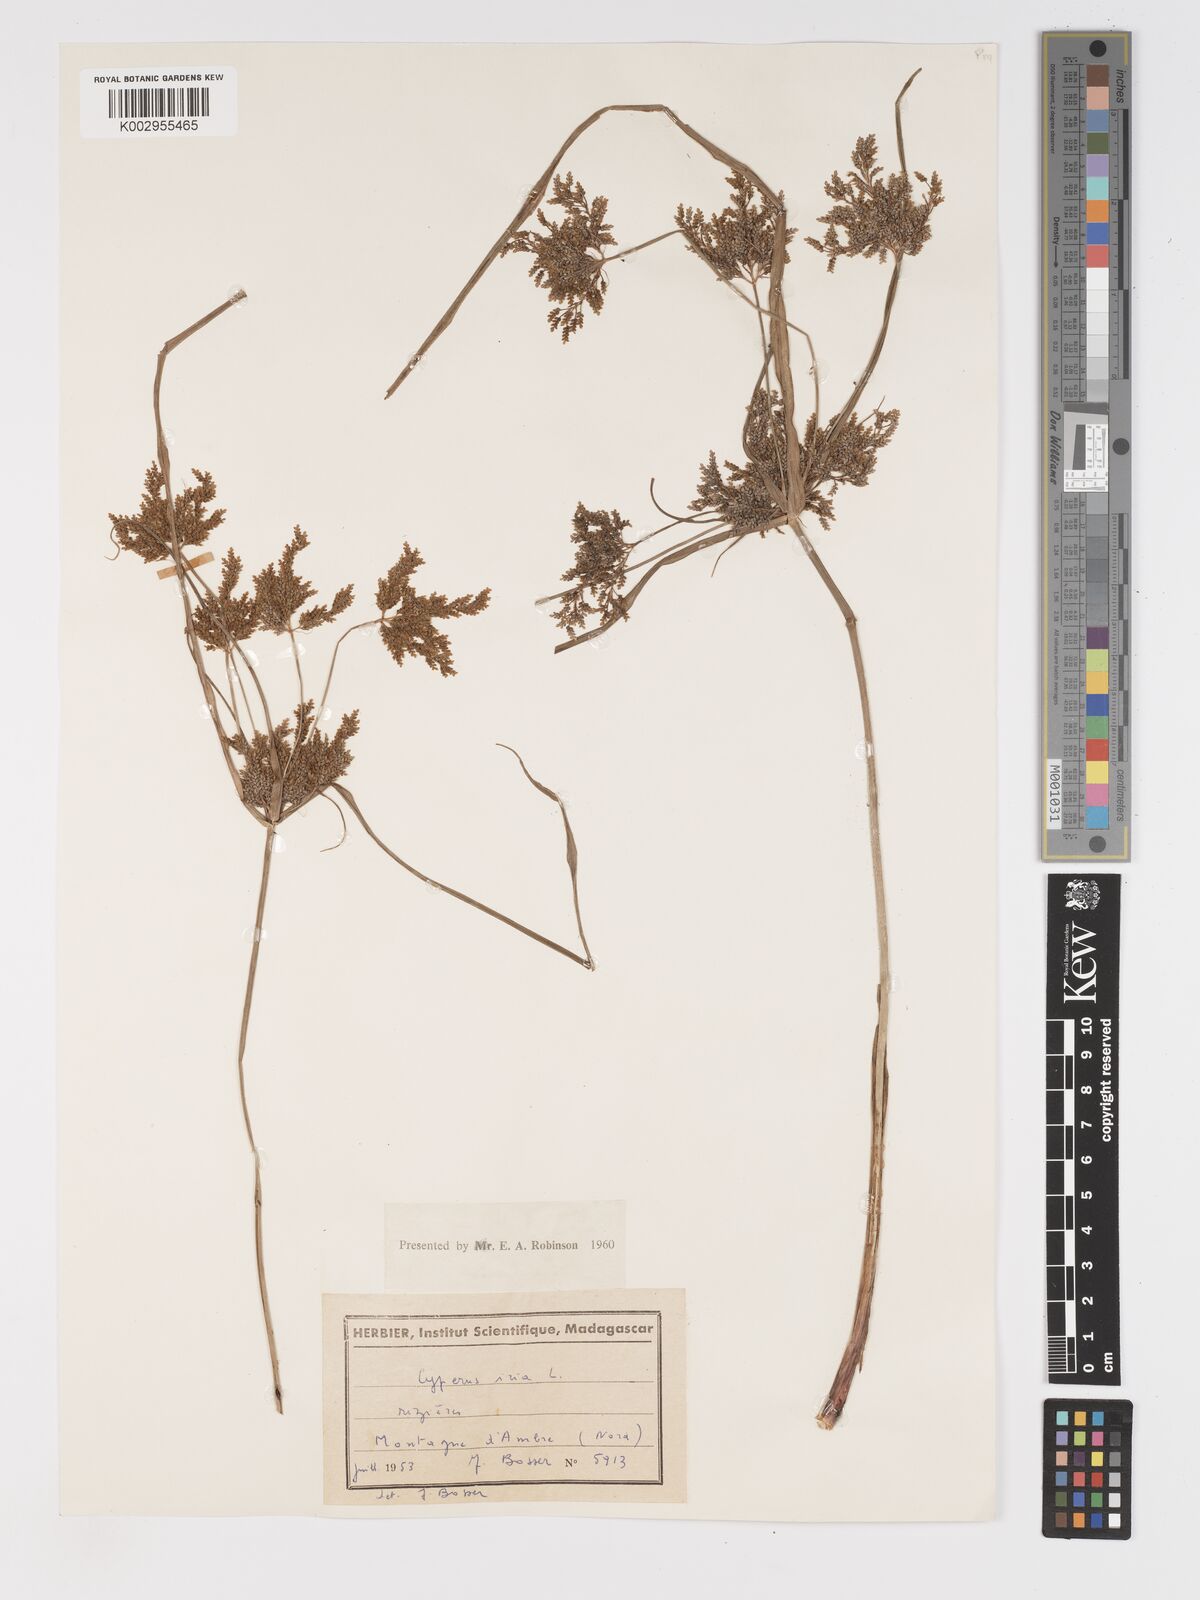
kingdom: Plantae
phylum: Tracheophyta
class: Liliopsida
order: Poales
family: Cyperaceae
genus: Cyperus
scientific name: Cyperus iria
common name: Ricefield flatsedge
